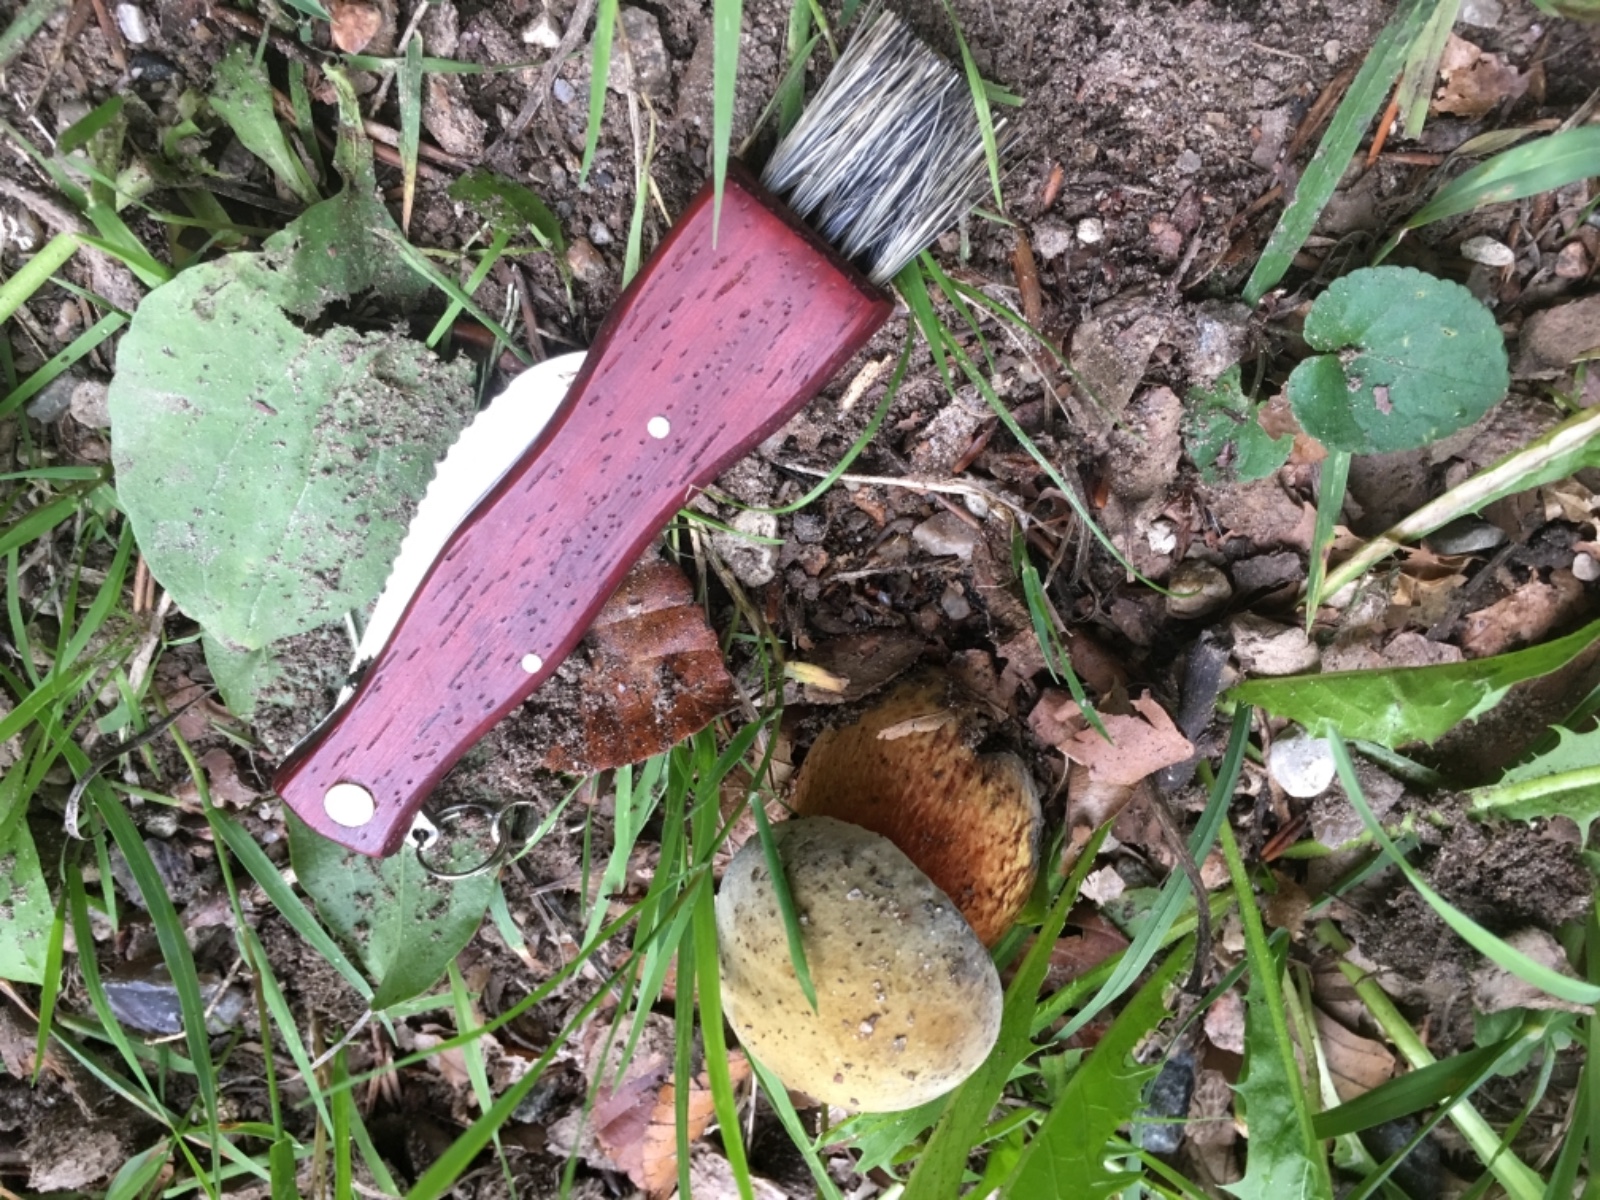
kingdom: Fungi
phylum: Basidiomycota
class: Agaricomycetes
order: Boletales
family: Boletaceae
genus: Suillellus
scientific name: Suillellus luridus
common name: netstokket indigorørhat
